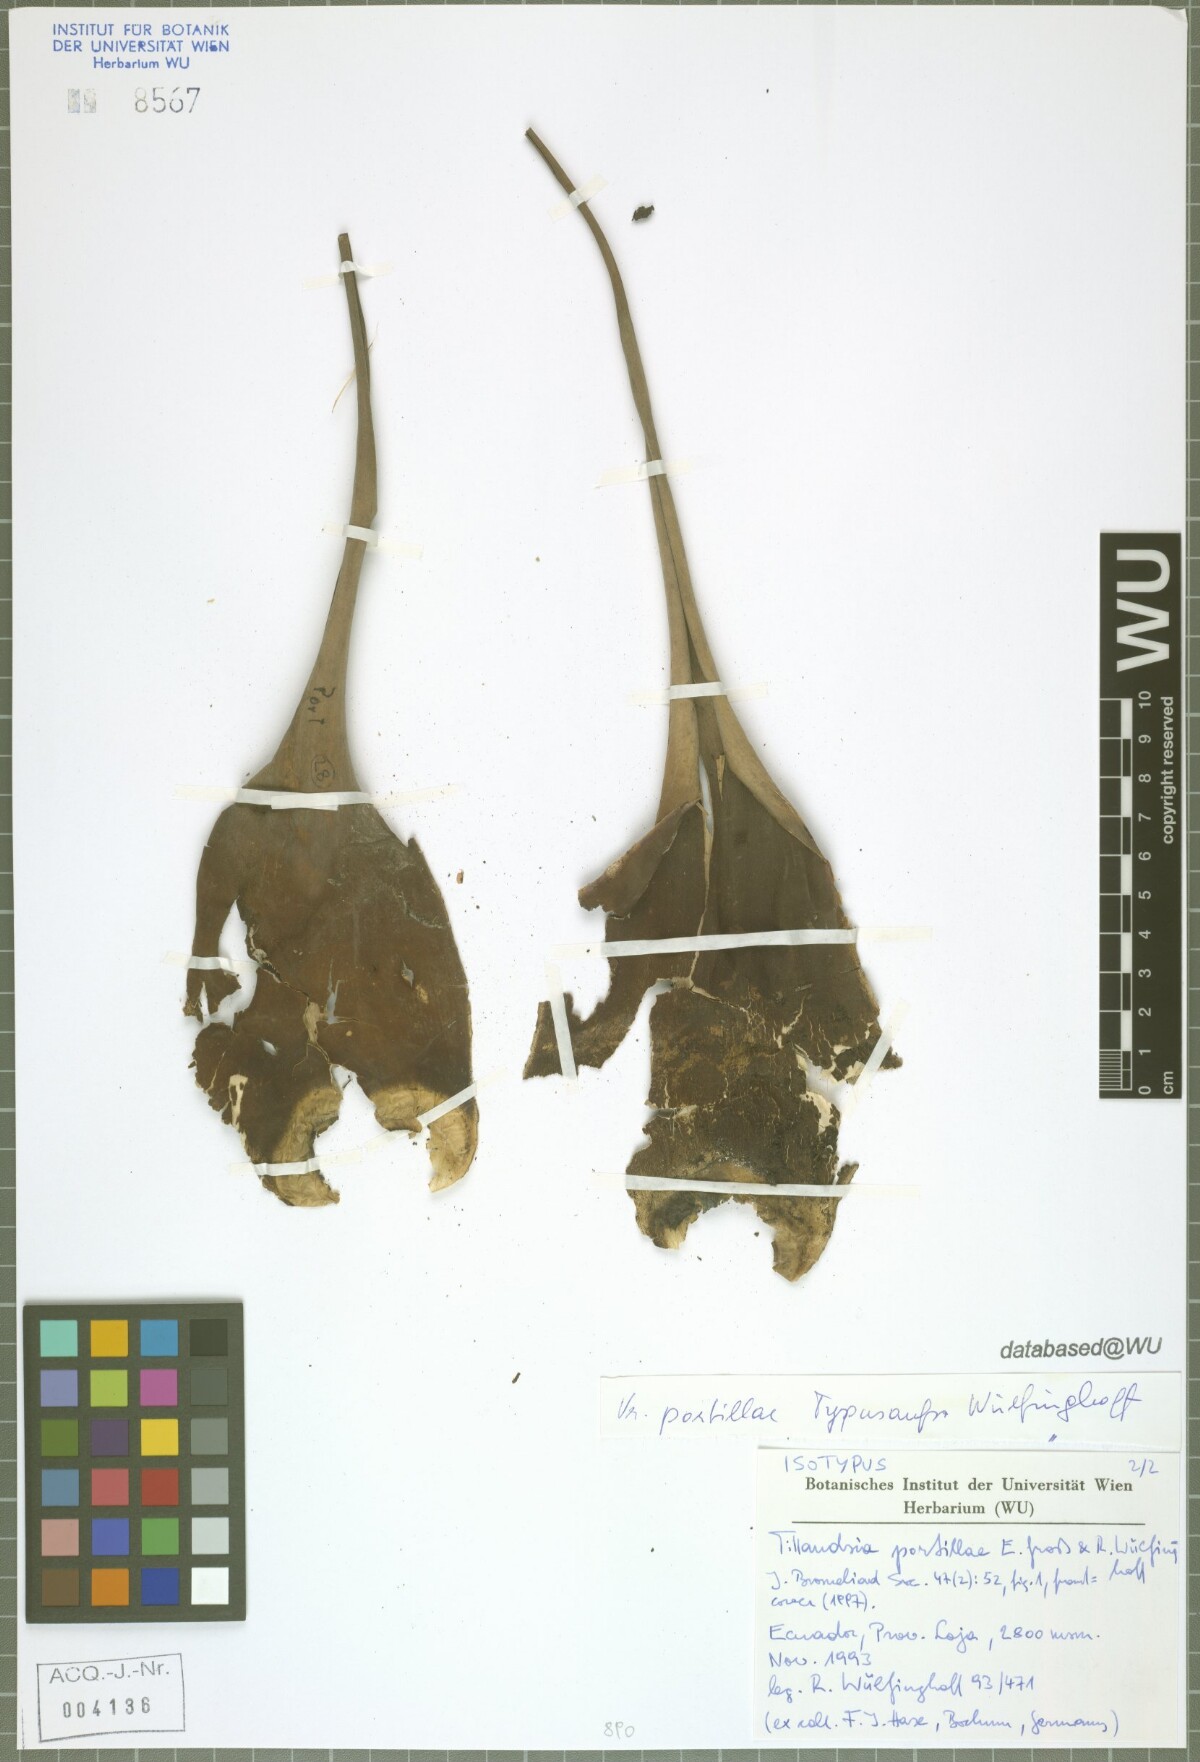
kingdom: Plantae
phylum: Tracheophyta
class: Liliopsida
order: Poales
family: Bromeliaceae
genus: Tillandsia
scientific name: Tillandsia portillae
